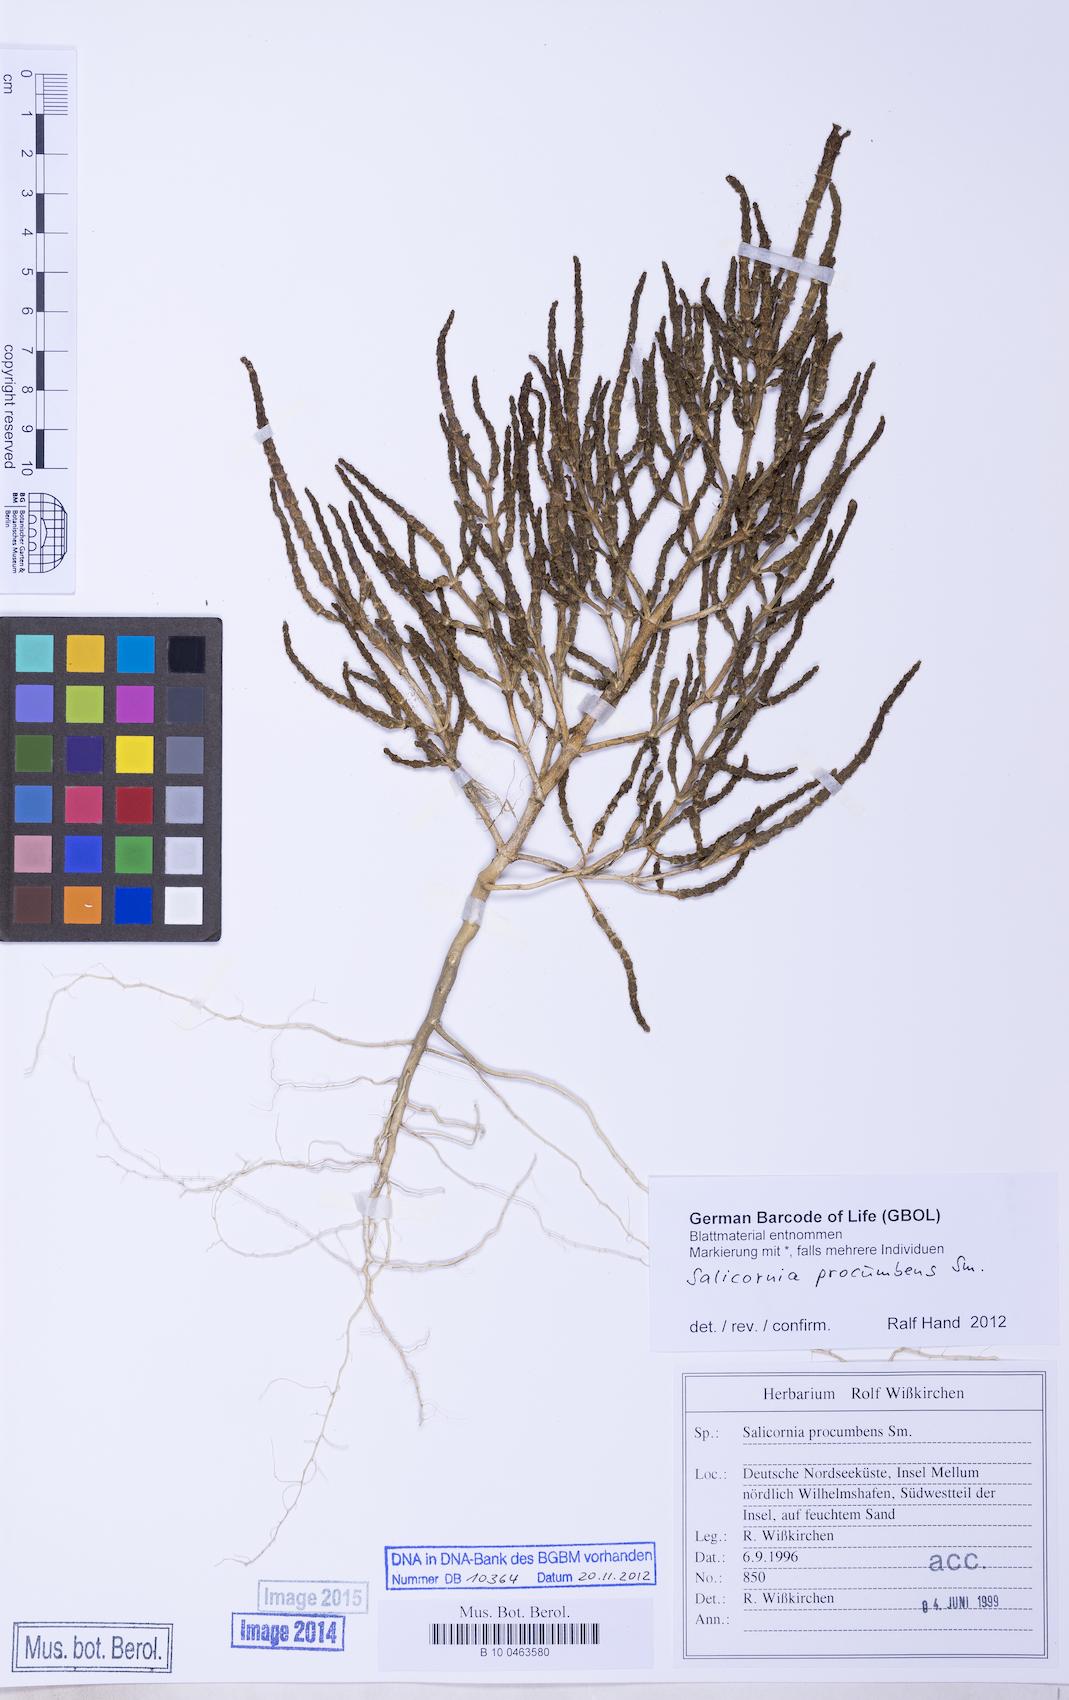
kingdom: Plantae
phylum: Tracheophyta
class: Magnoliopsida
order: Caryophyllales
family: Amaranthaceae
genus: Salicornia
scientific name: Salicornia procumbens
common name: Long-spiked glasswort
